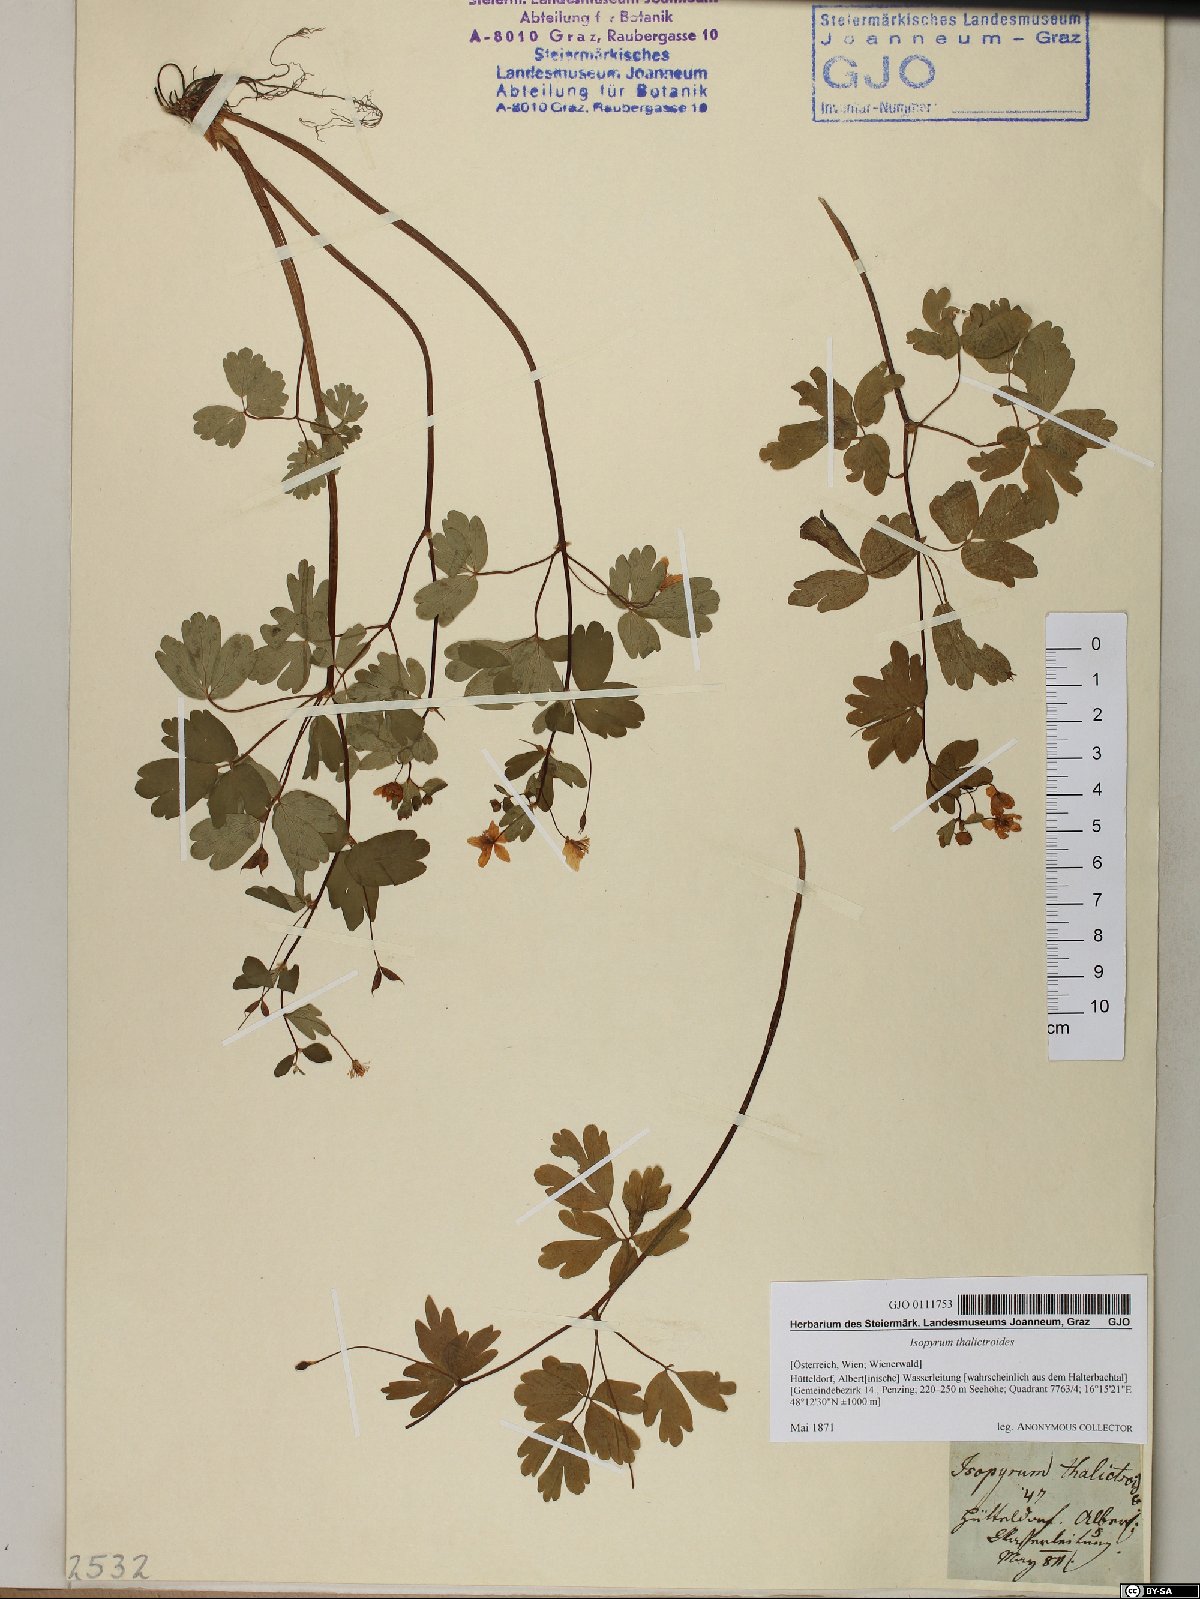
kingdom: Plantae
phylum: Tracheophyta
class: Magnoliopsida
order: Ranunculales
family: Ranunculaceae
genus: Isopyrum
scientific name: Isopyrum thalictroides
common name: Isopyrum
